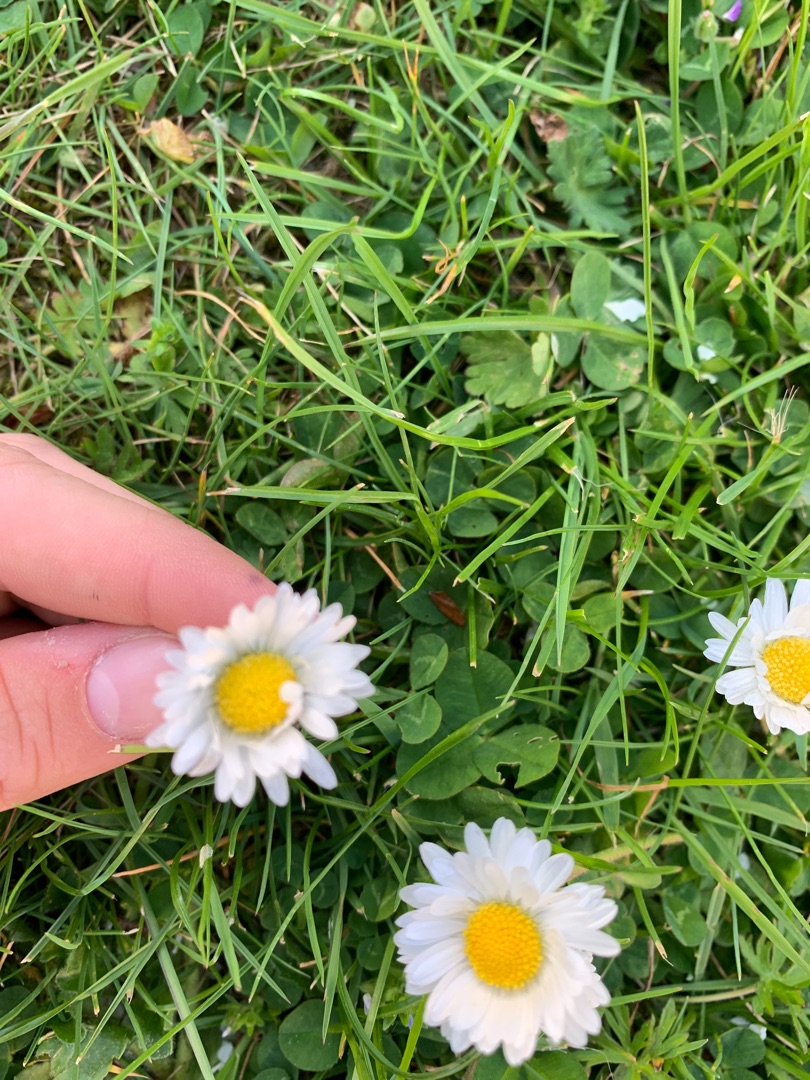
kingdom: Plantae
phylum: Tracheophyta
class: Magnoliopsida
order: Asterales
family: Asteraceae
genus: Bellis
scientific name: Bellis perennis
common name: Tusindfryd
